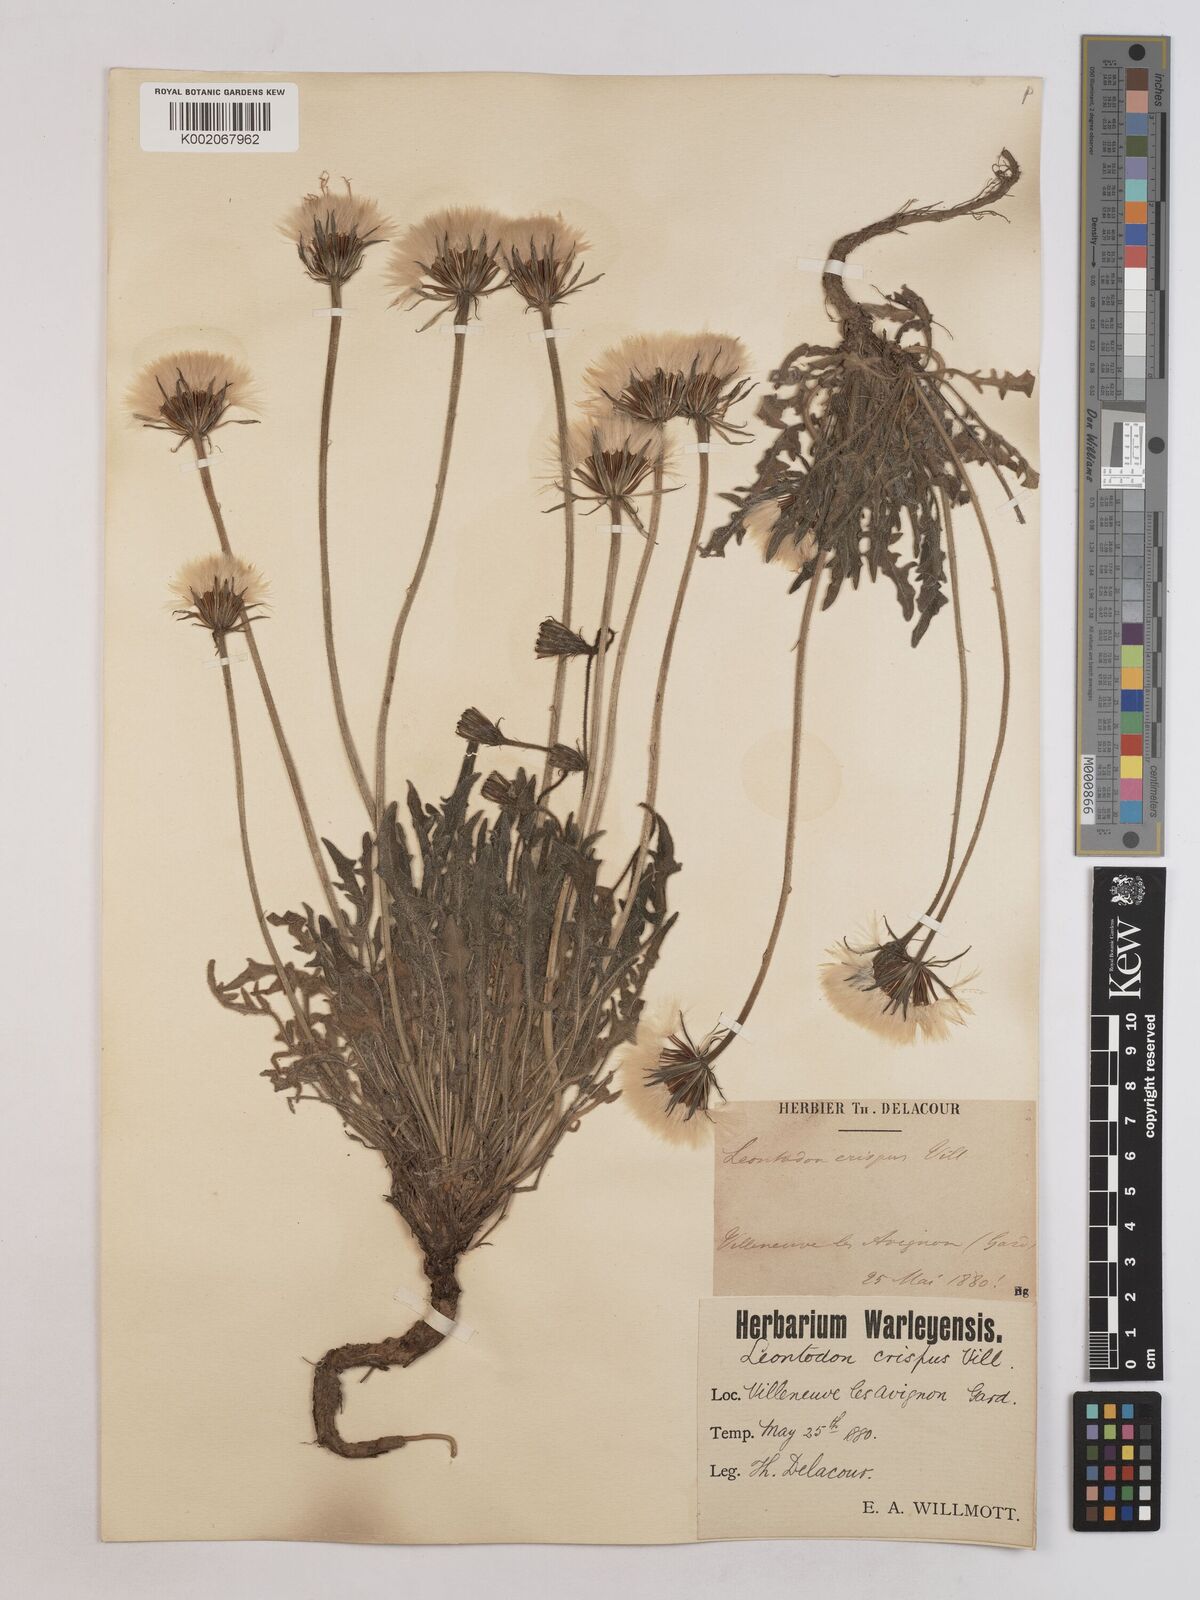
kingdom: Plantae
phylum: Tracheophyta
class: Magnoliopsida
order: Asterales
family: Asteraceae
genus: Leontodon
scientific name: Leontodon crispus
